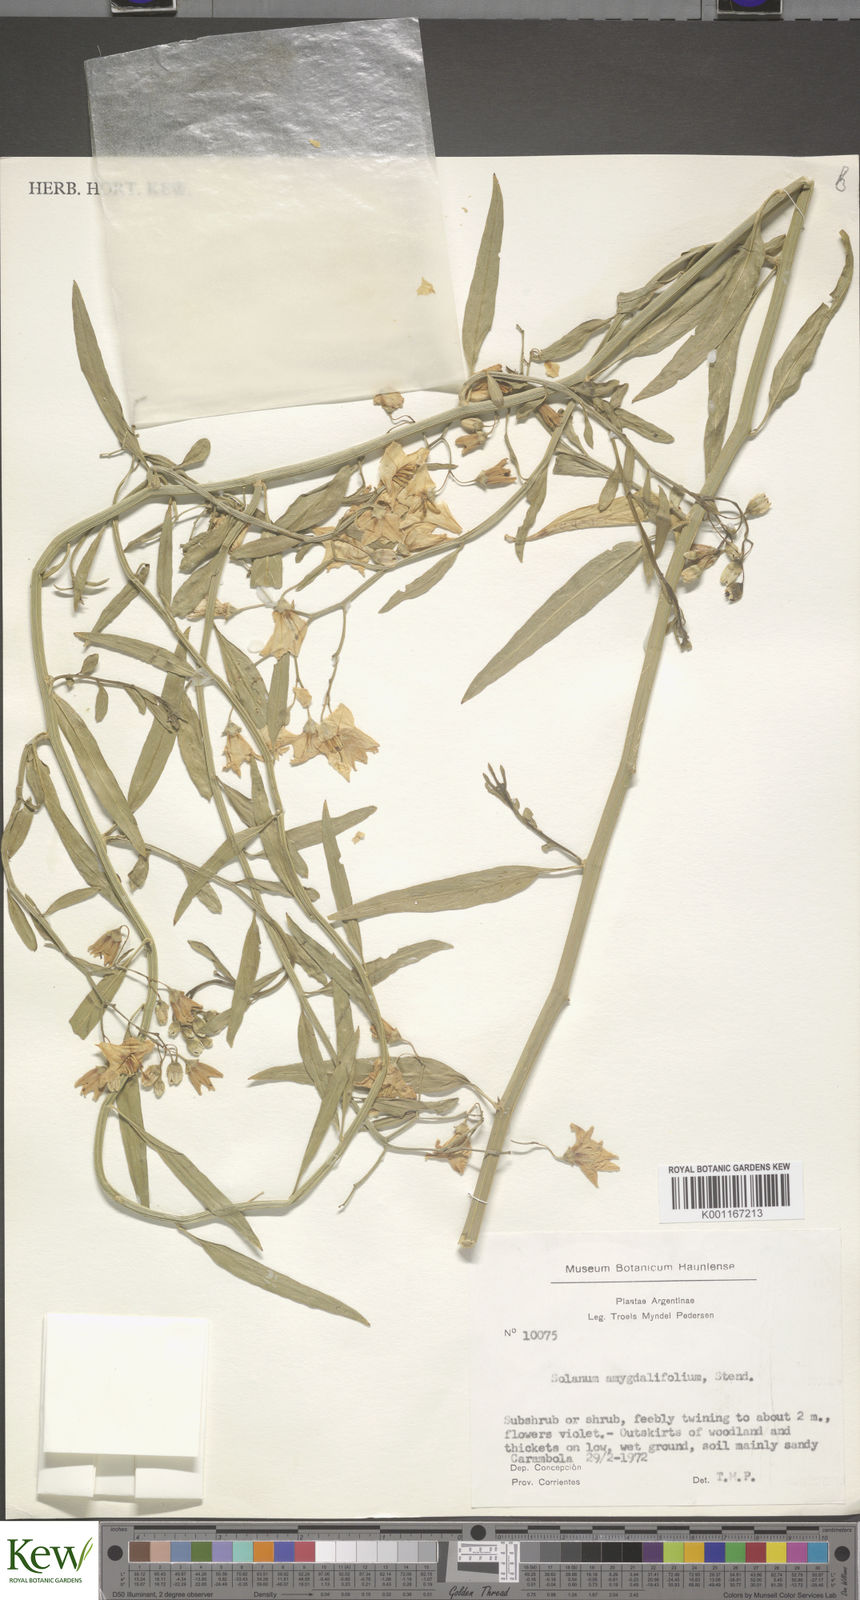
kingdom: Plantae
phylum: Tracheophyta
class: Magnoliopsida
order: Solanales
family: Solanaceae
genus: Solanum
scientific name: Solanum amygdalifolium
